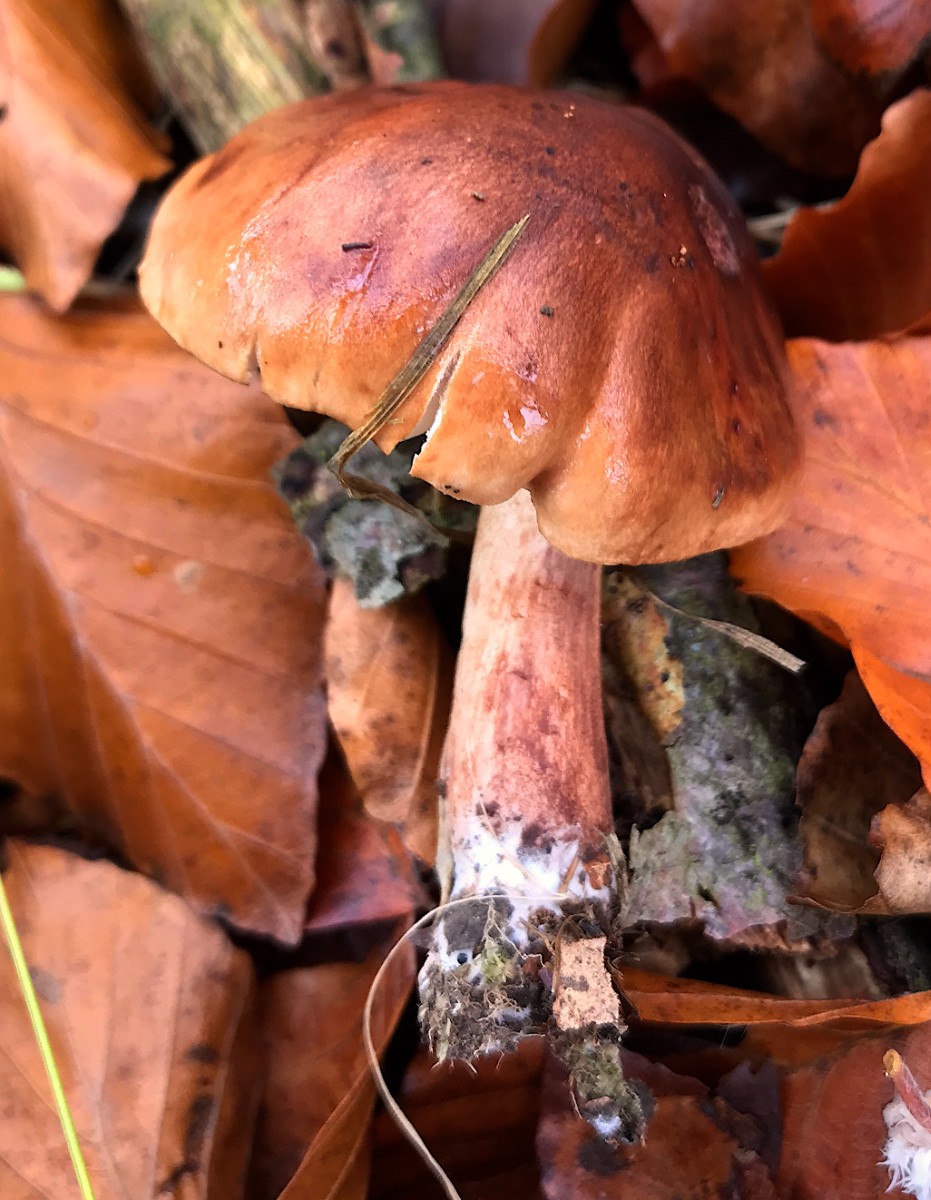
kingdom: Fungi
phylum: Basidiomycota
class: Agaricomycetes
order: Agaricales
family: Tricholomataceae
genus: Tricholoma
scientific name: Tricholoma ustale
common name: sveden ridderhat
